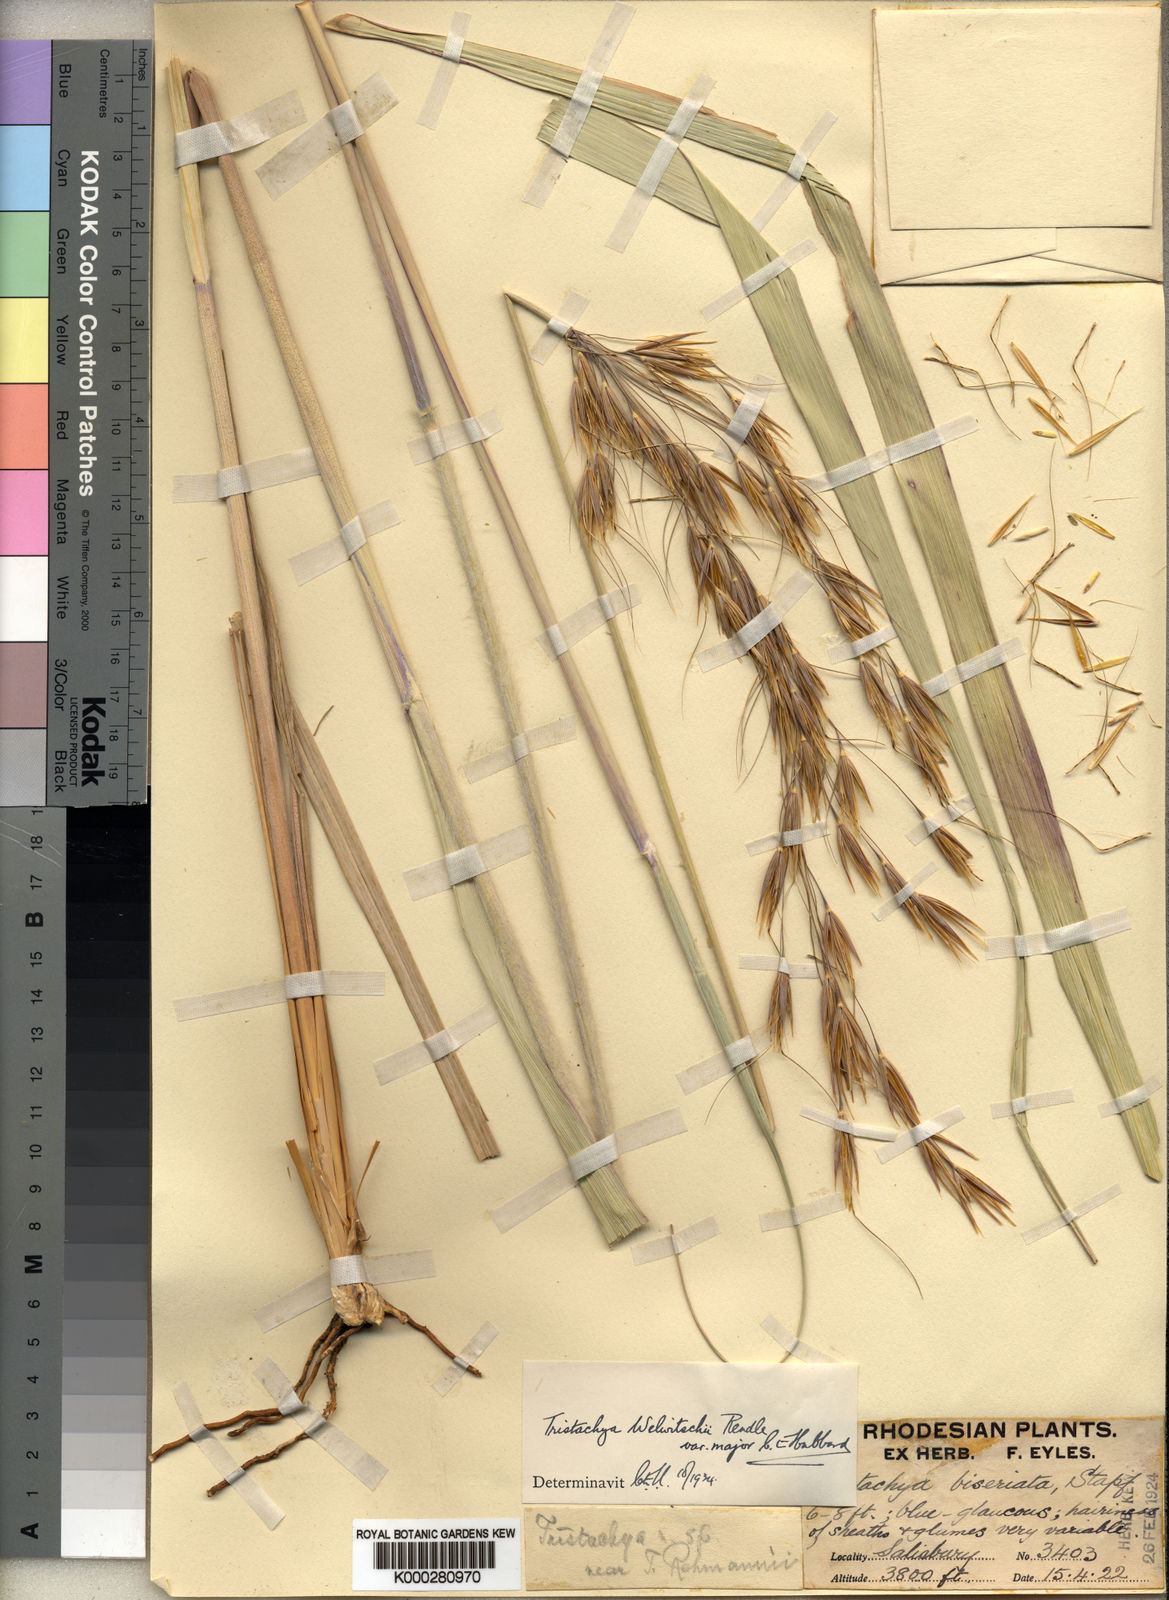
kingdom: Plantae
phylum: Tracheophyta
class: Liliopsida
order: Poales
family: Poaceae
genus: Tristachya
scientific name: Tristachya nodiglumis
